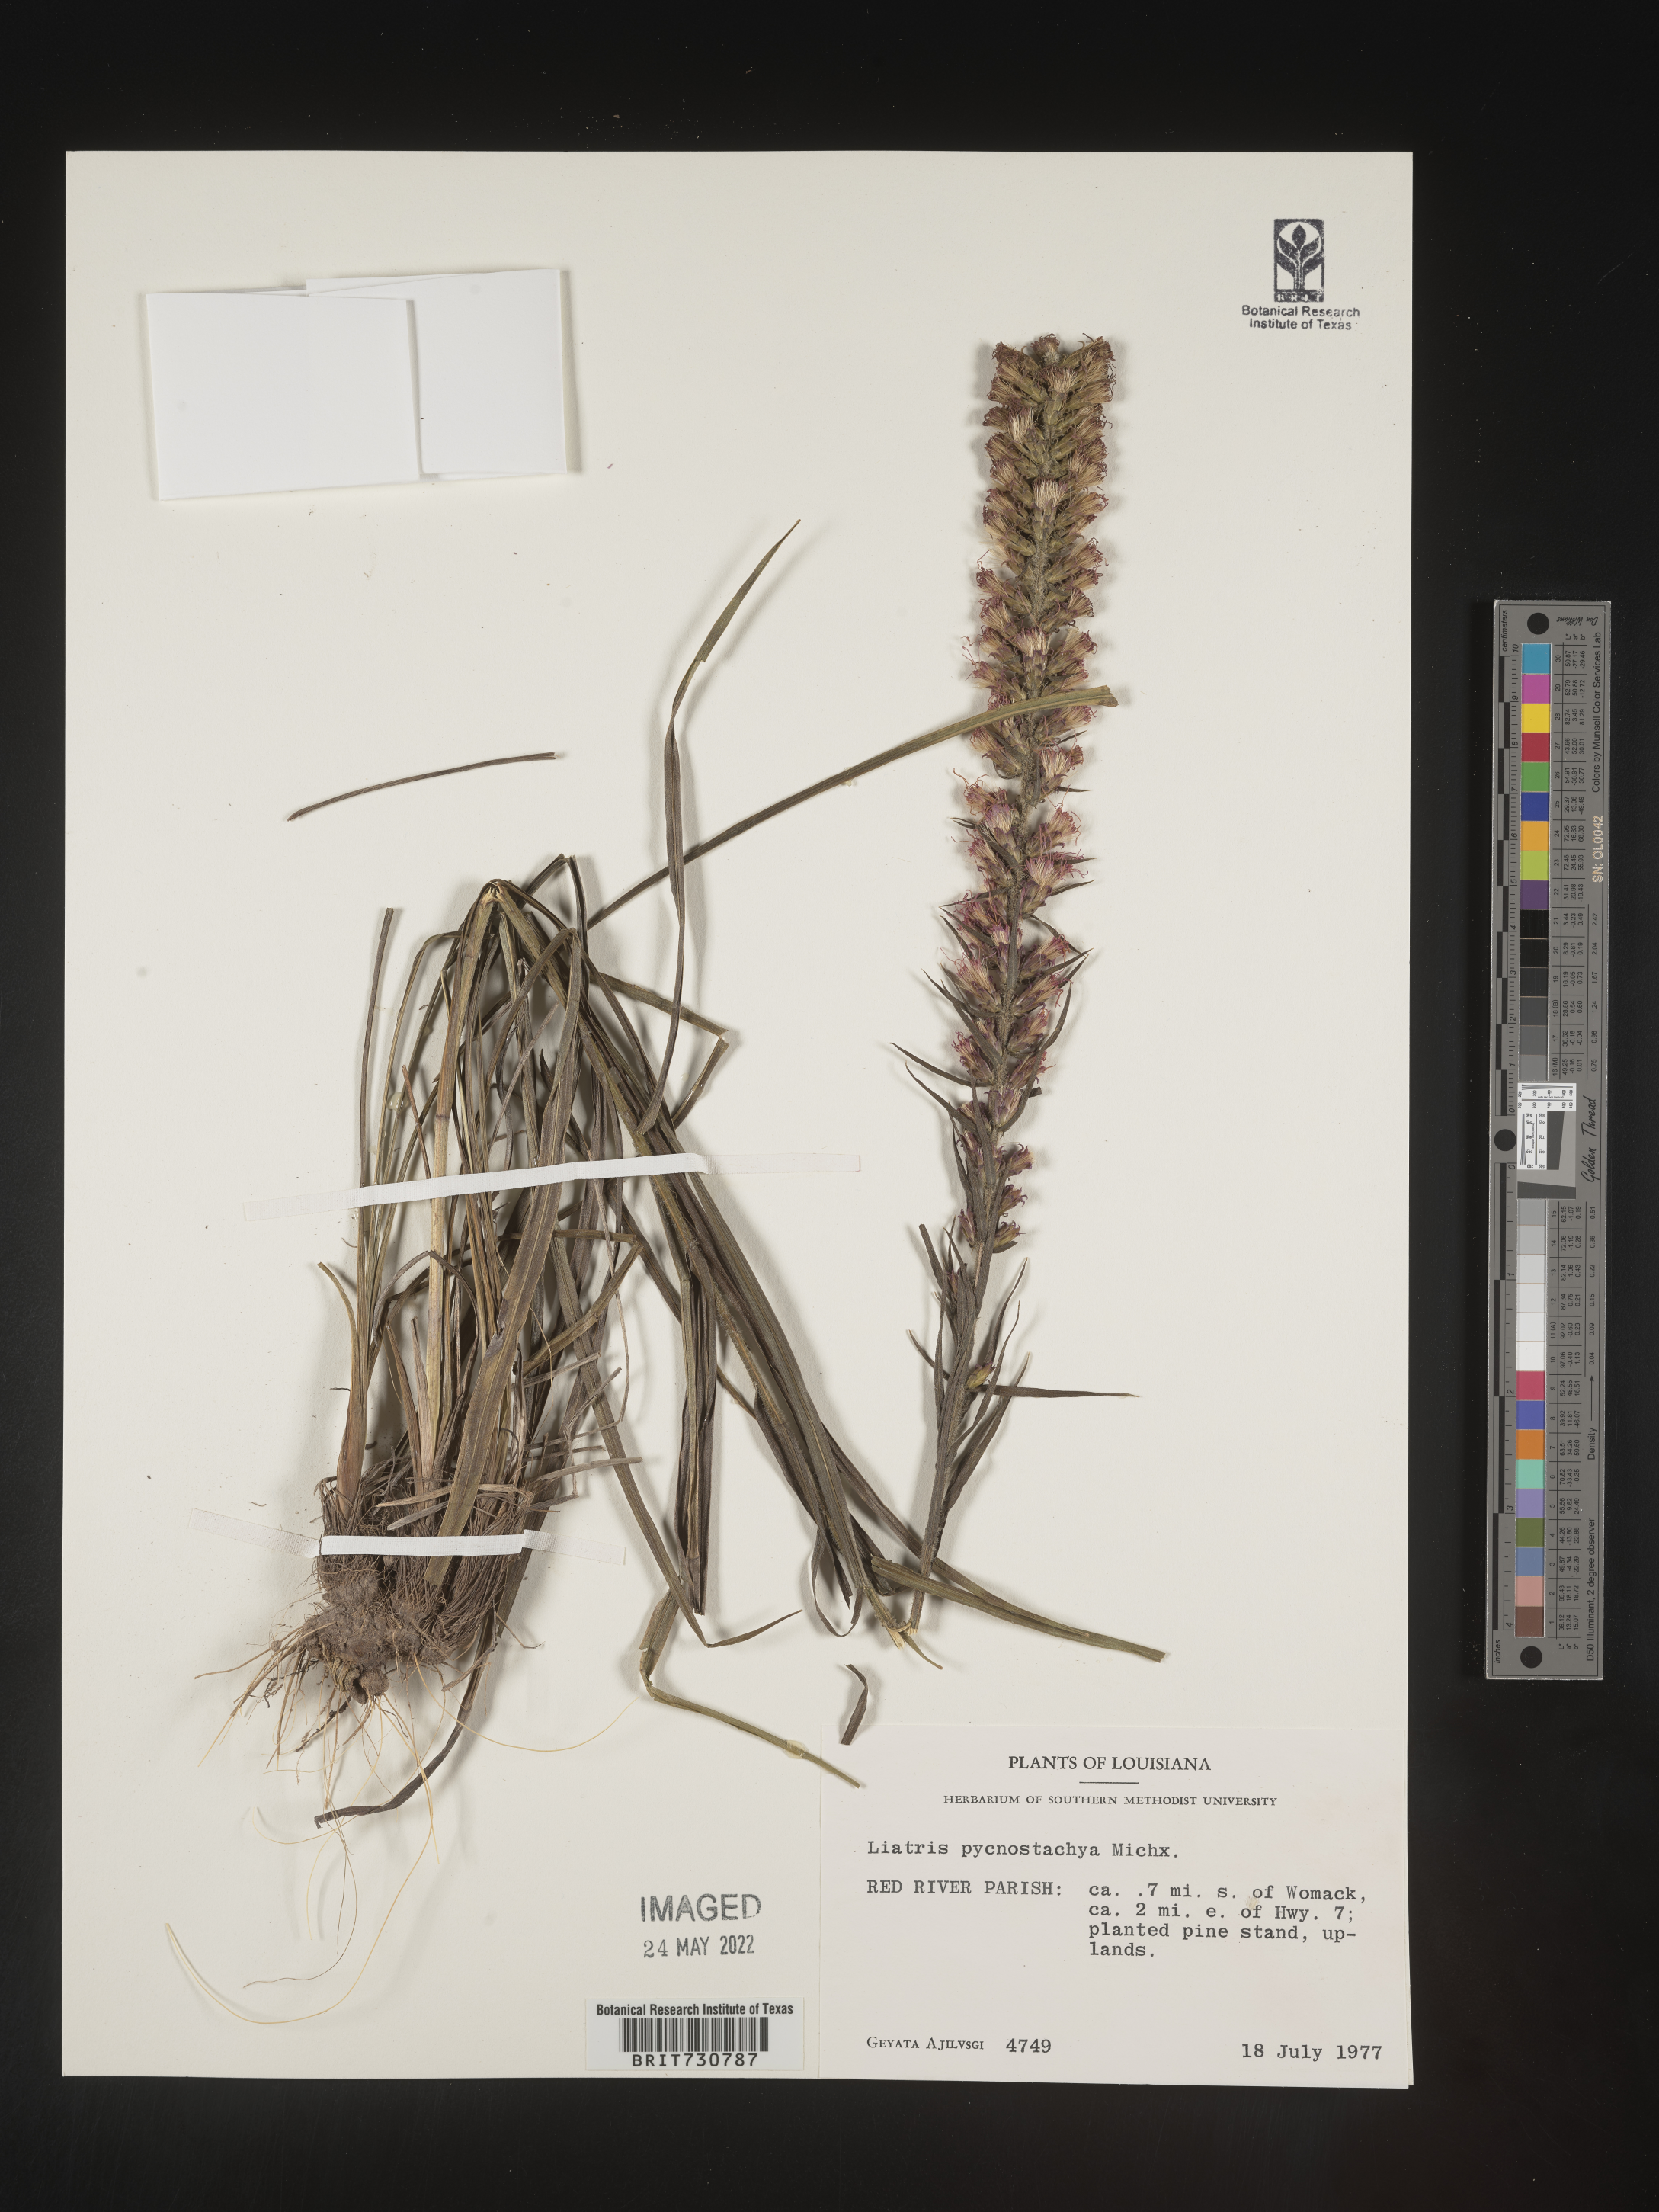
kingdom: Plantae
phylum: Tracheophyta
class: Magnoliopsida
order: Asterales
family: Asteraceae
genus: Liatris
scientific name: Liatris pycnostachya
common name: Cattail gayfeather
